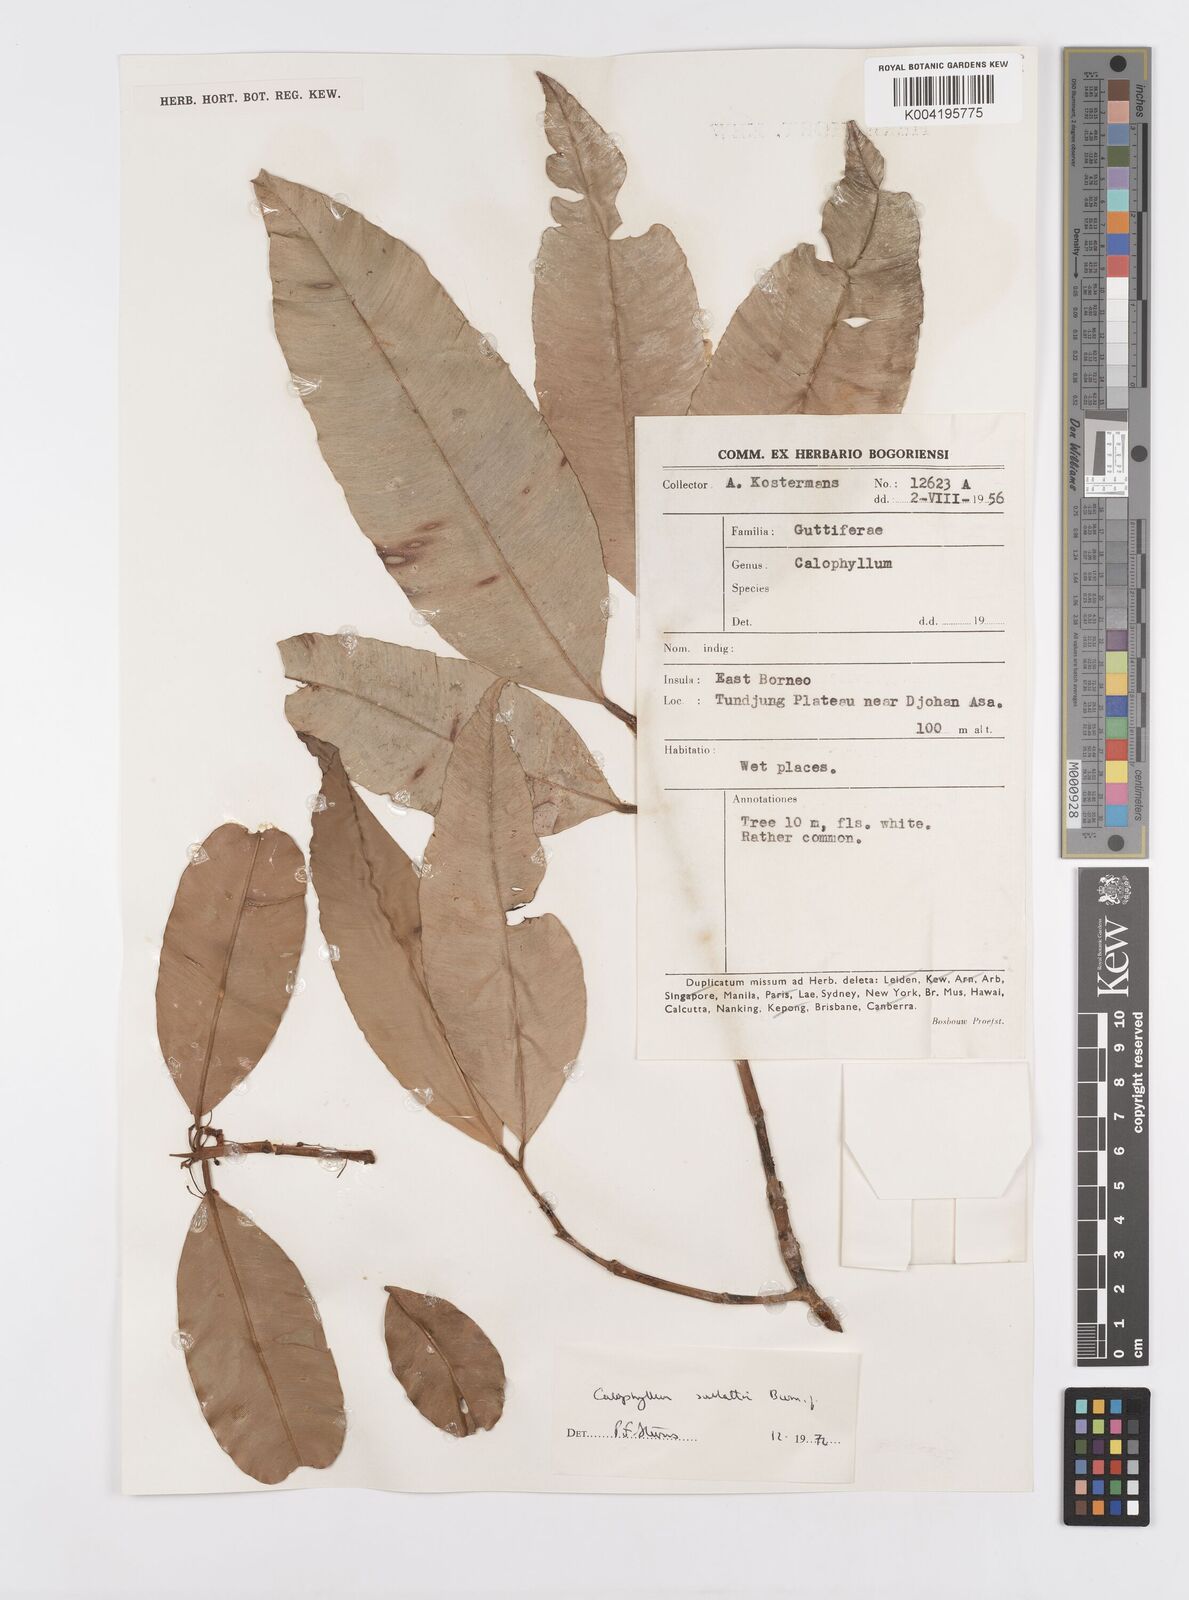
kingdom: Plantae
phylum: Tracheophyta
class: Magnoliopsida
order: Malpighiales
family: Calophyllaceae
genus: Calophyllum
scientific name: Calophyllum soulattri
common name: Bitangoor boonot
